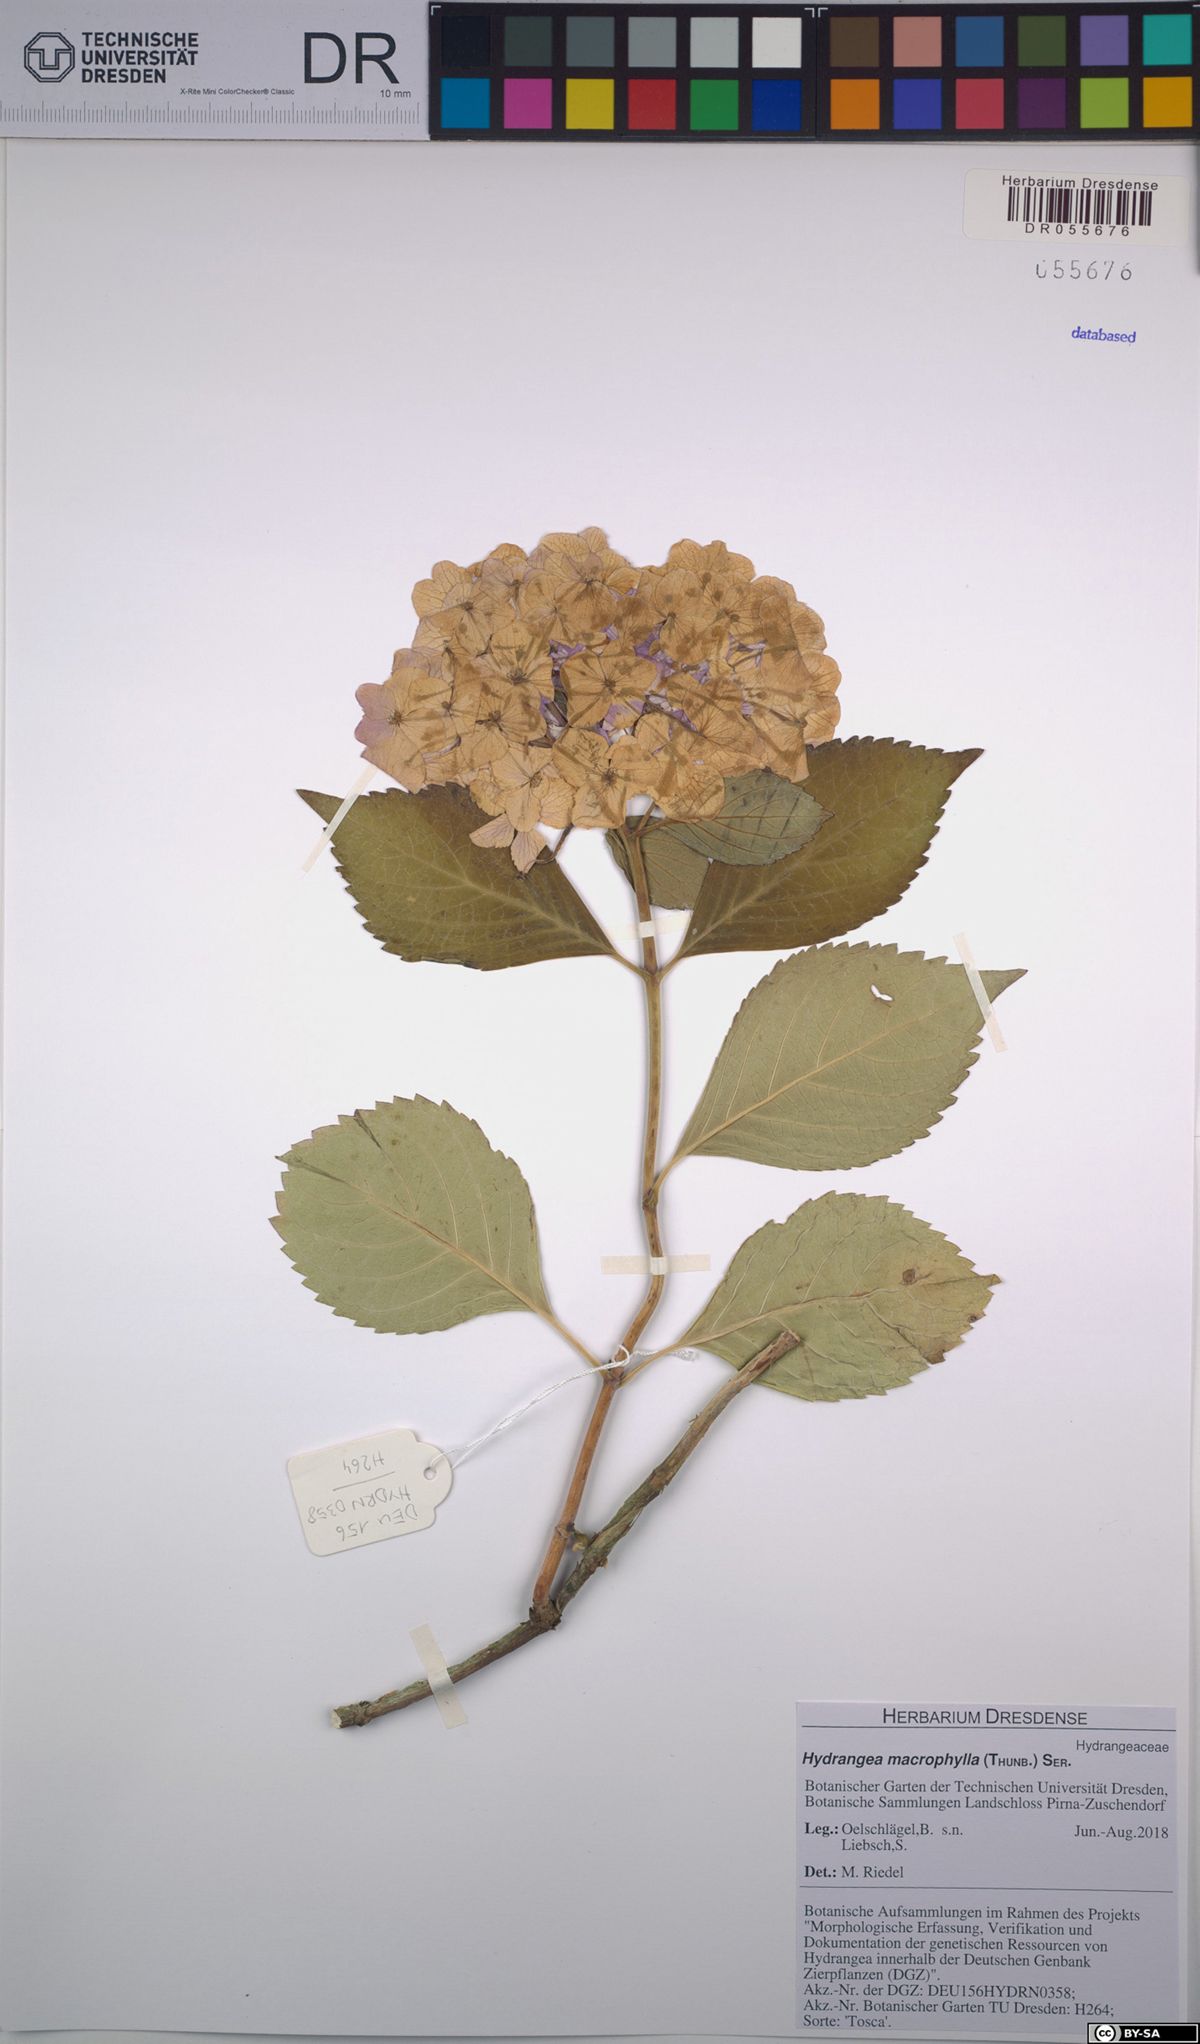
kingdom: Plantae
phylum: Tracheophyta
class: Magnoliopsida
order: Cornales
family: Hydrangeaceae
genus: Hydrangea
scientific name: Hydrangea macrophylla
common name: Hydrangea
